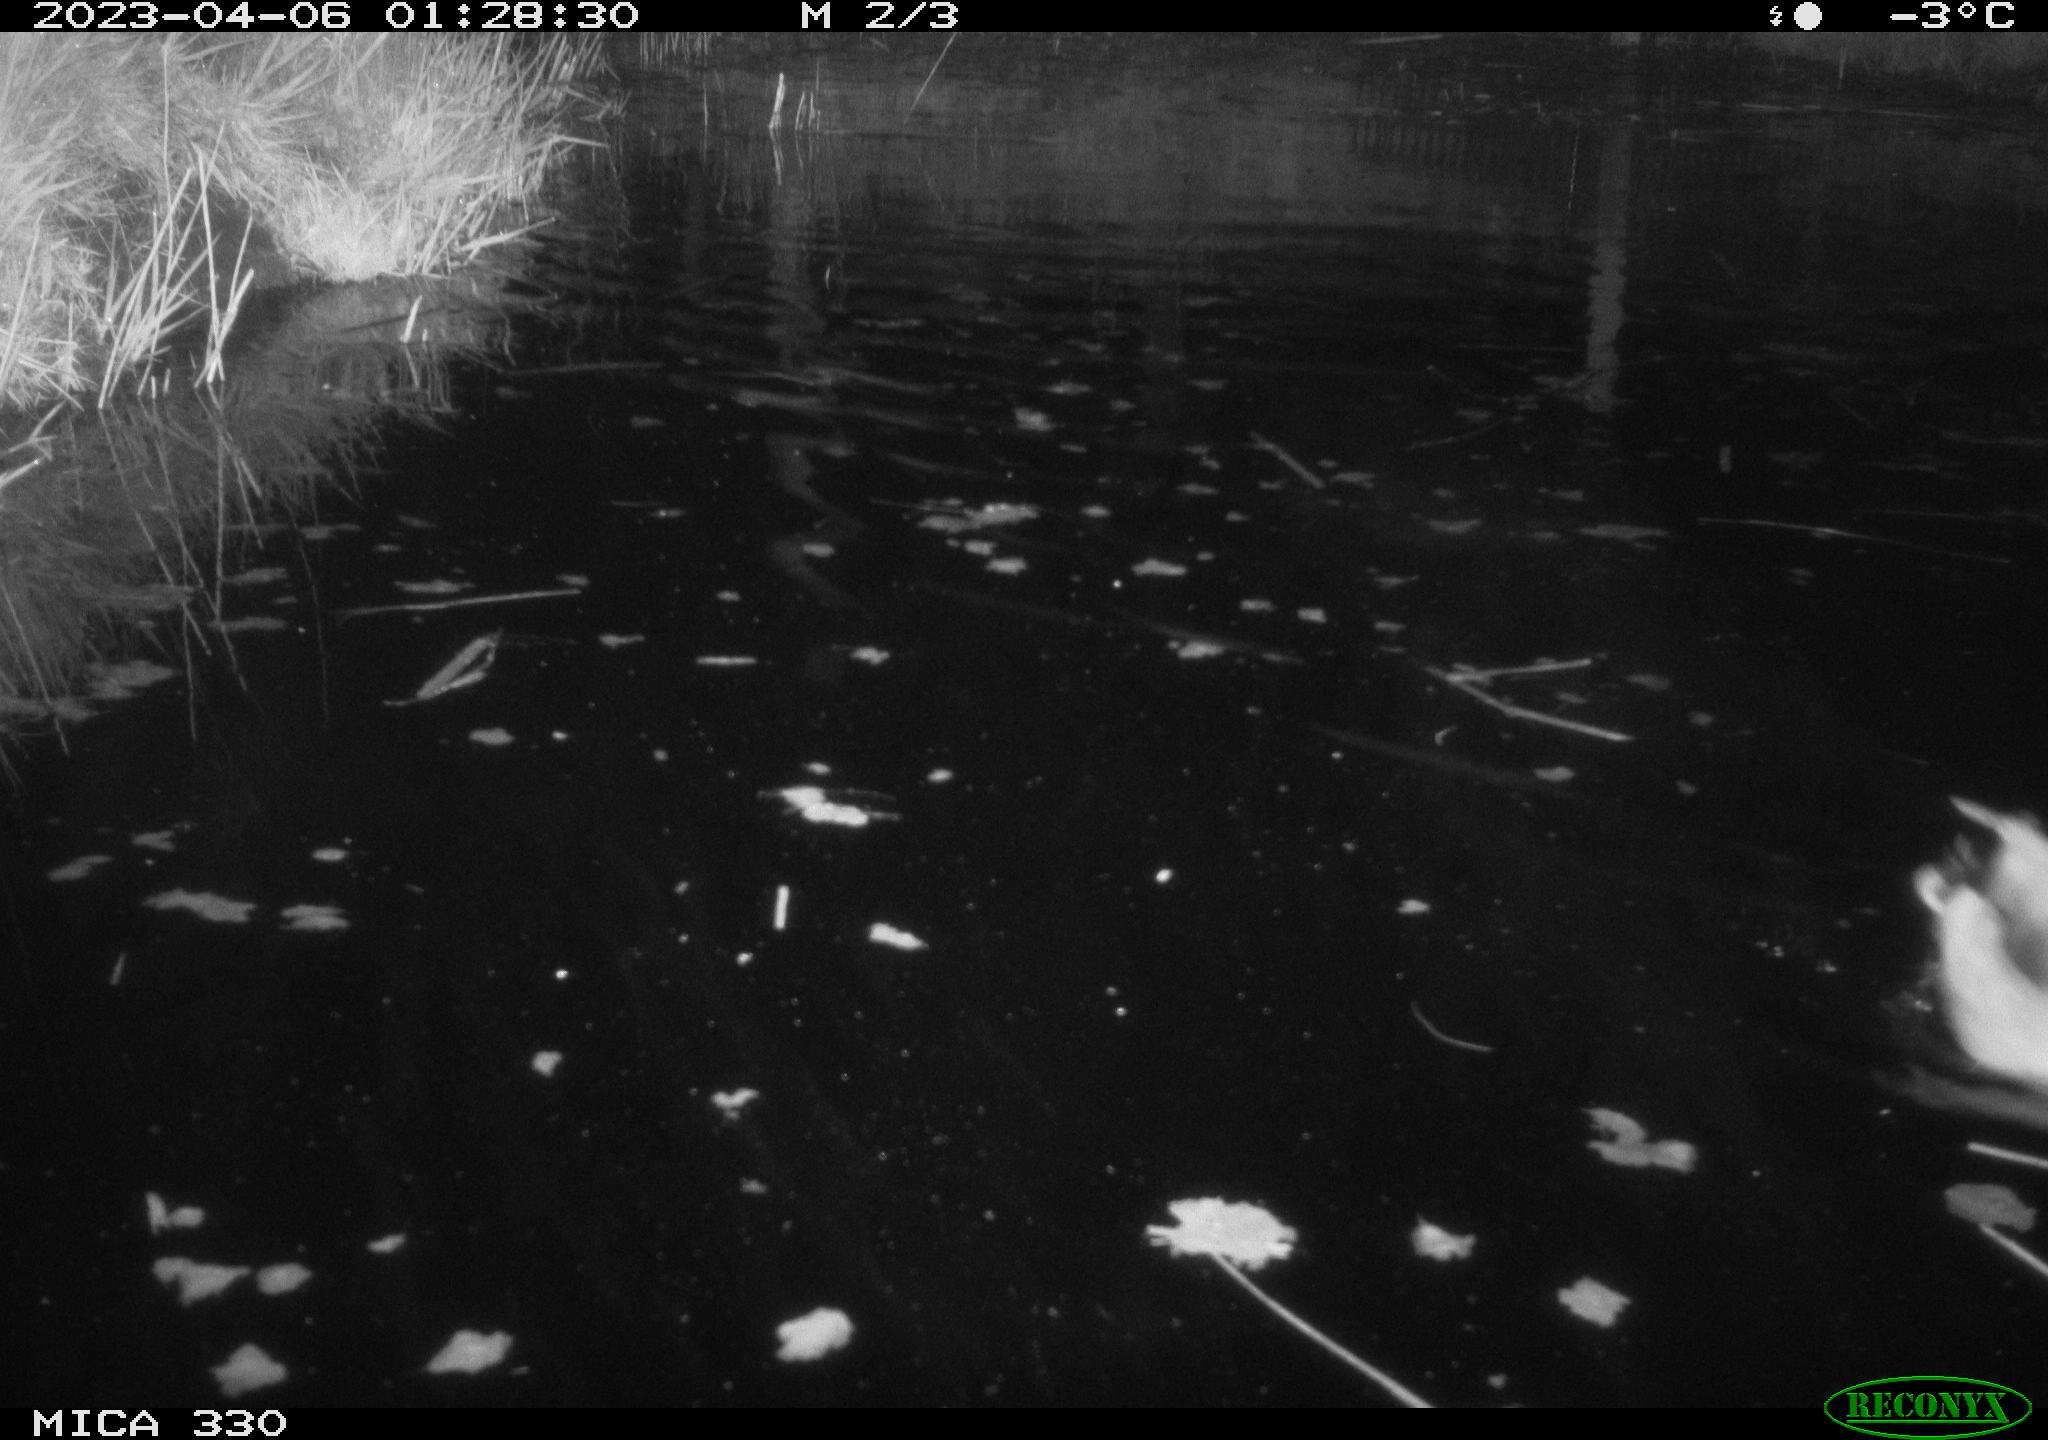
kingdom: Animalia
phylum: Chordata
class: Aves
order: Anseriformes
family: Anatidae
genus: Anas
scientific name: Anas
